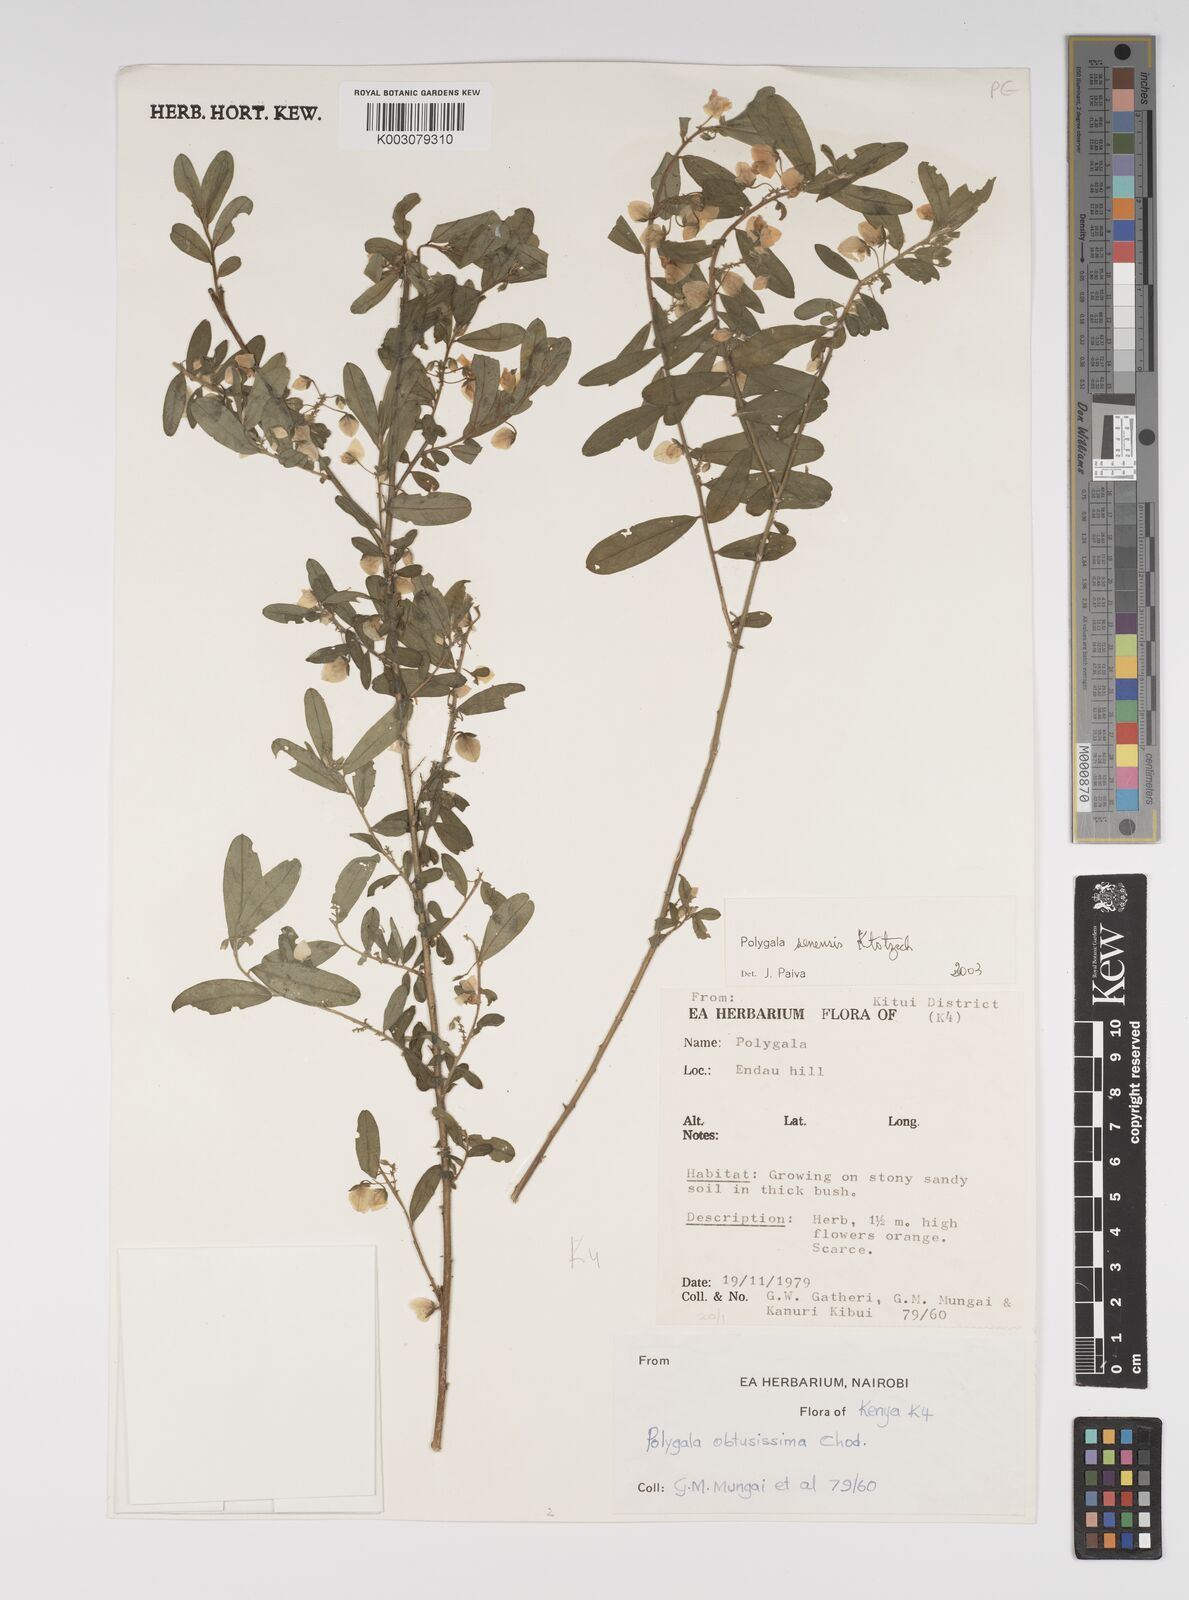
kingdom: Plantae
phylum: Tracheophyta
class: Magnoliopsida
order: Fabales
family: Polygalaceae
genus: Polygala
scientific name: Polygala senensis
